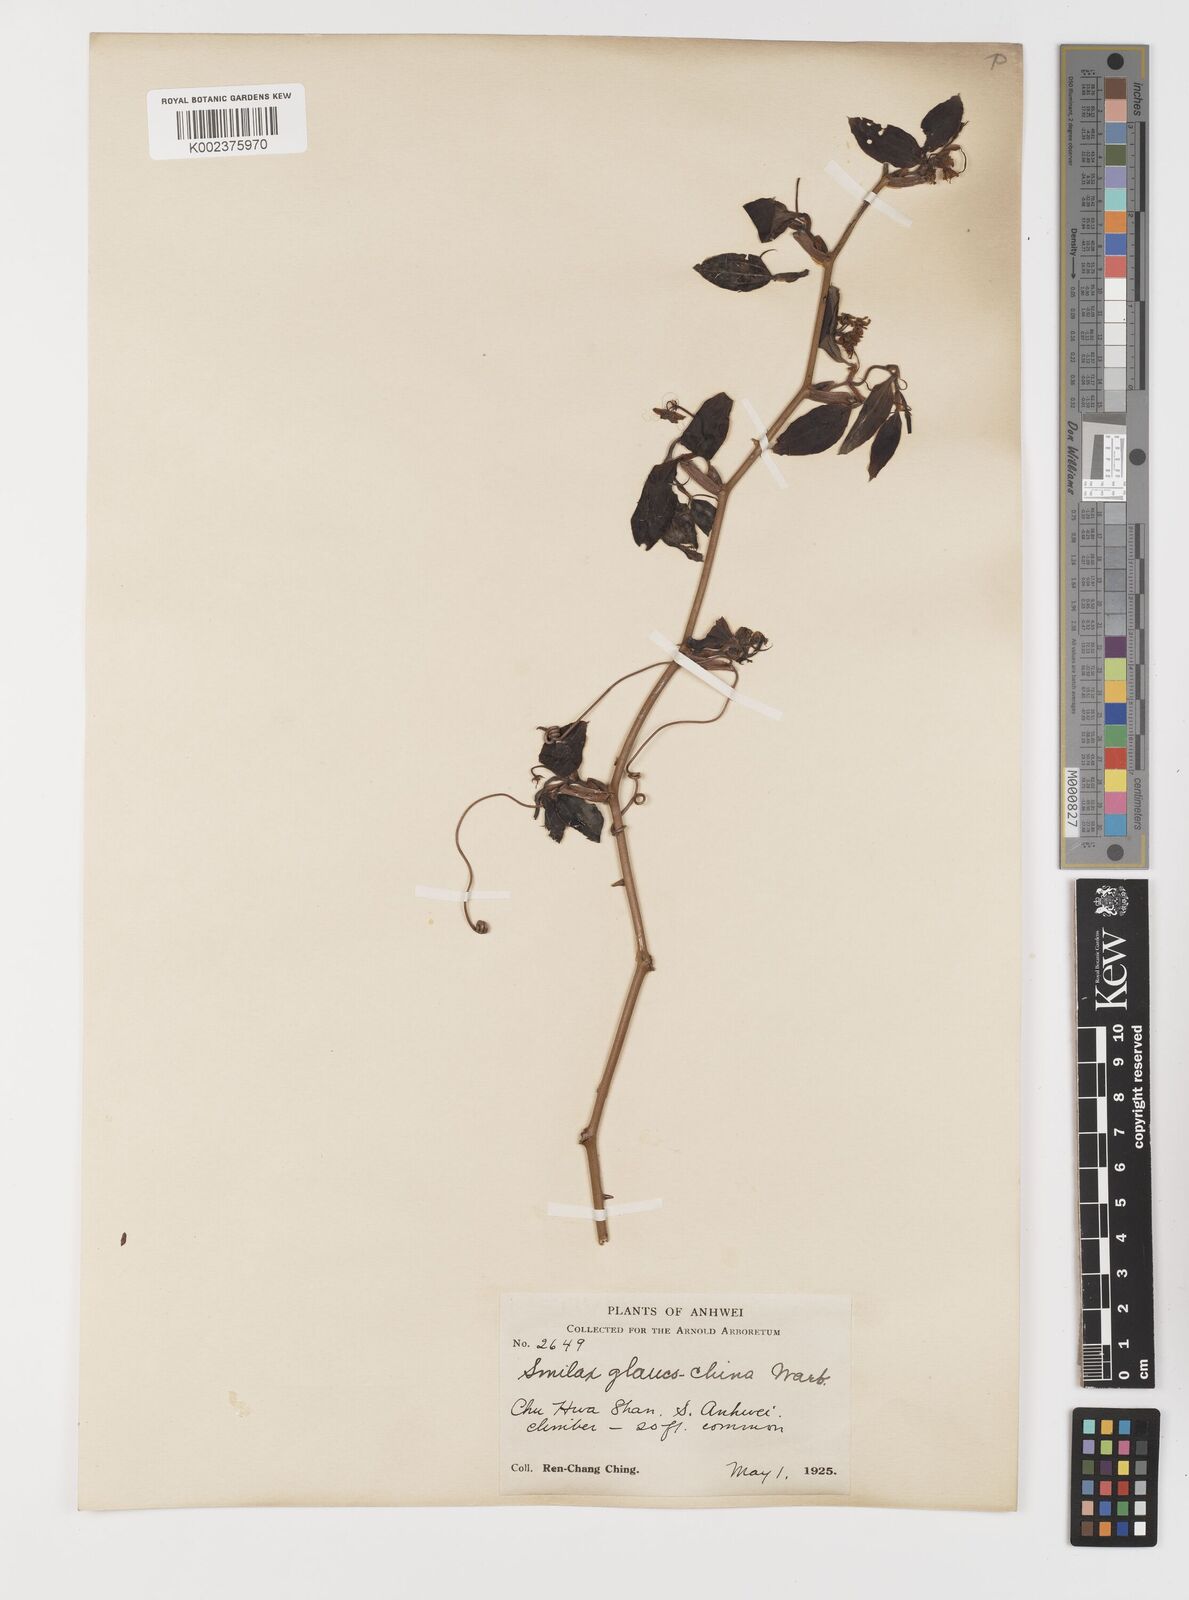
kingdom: Plantae
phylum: Tracheophyta
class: Liliopsida
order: Liliales
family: Smilacaceae
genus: Smilax
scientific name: Smilax glaucochina
